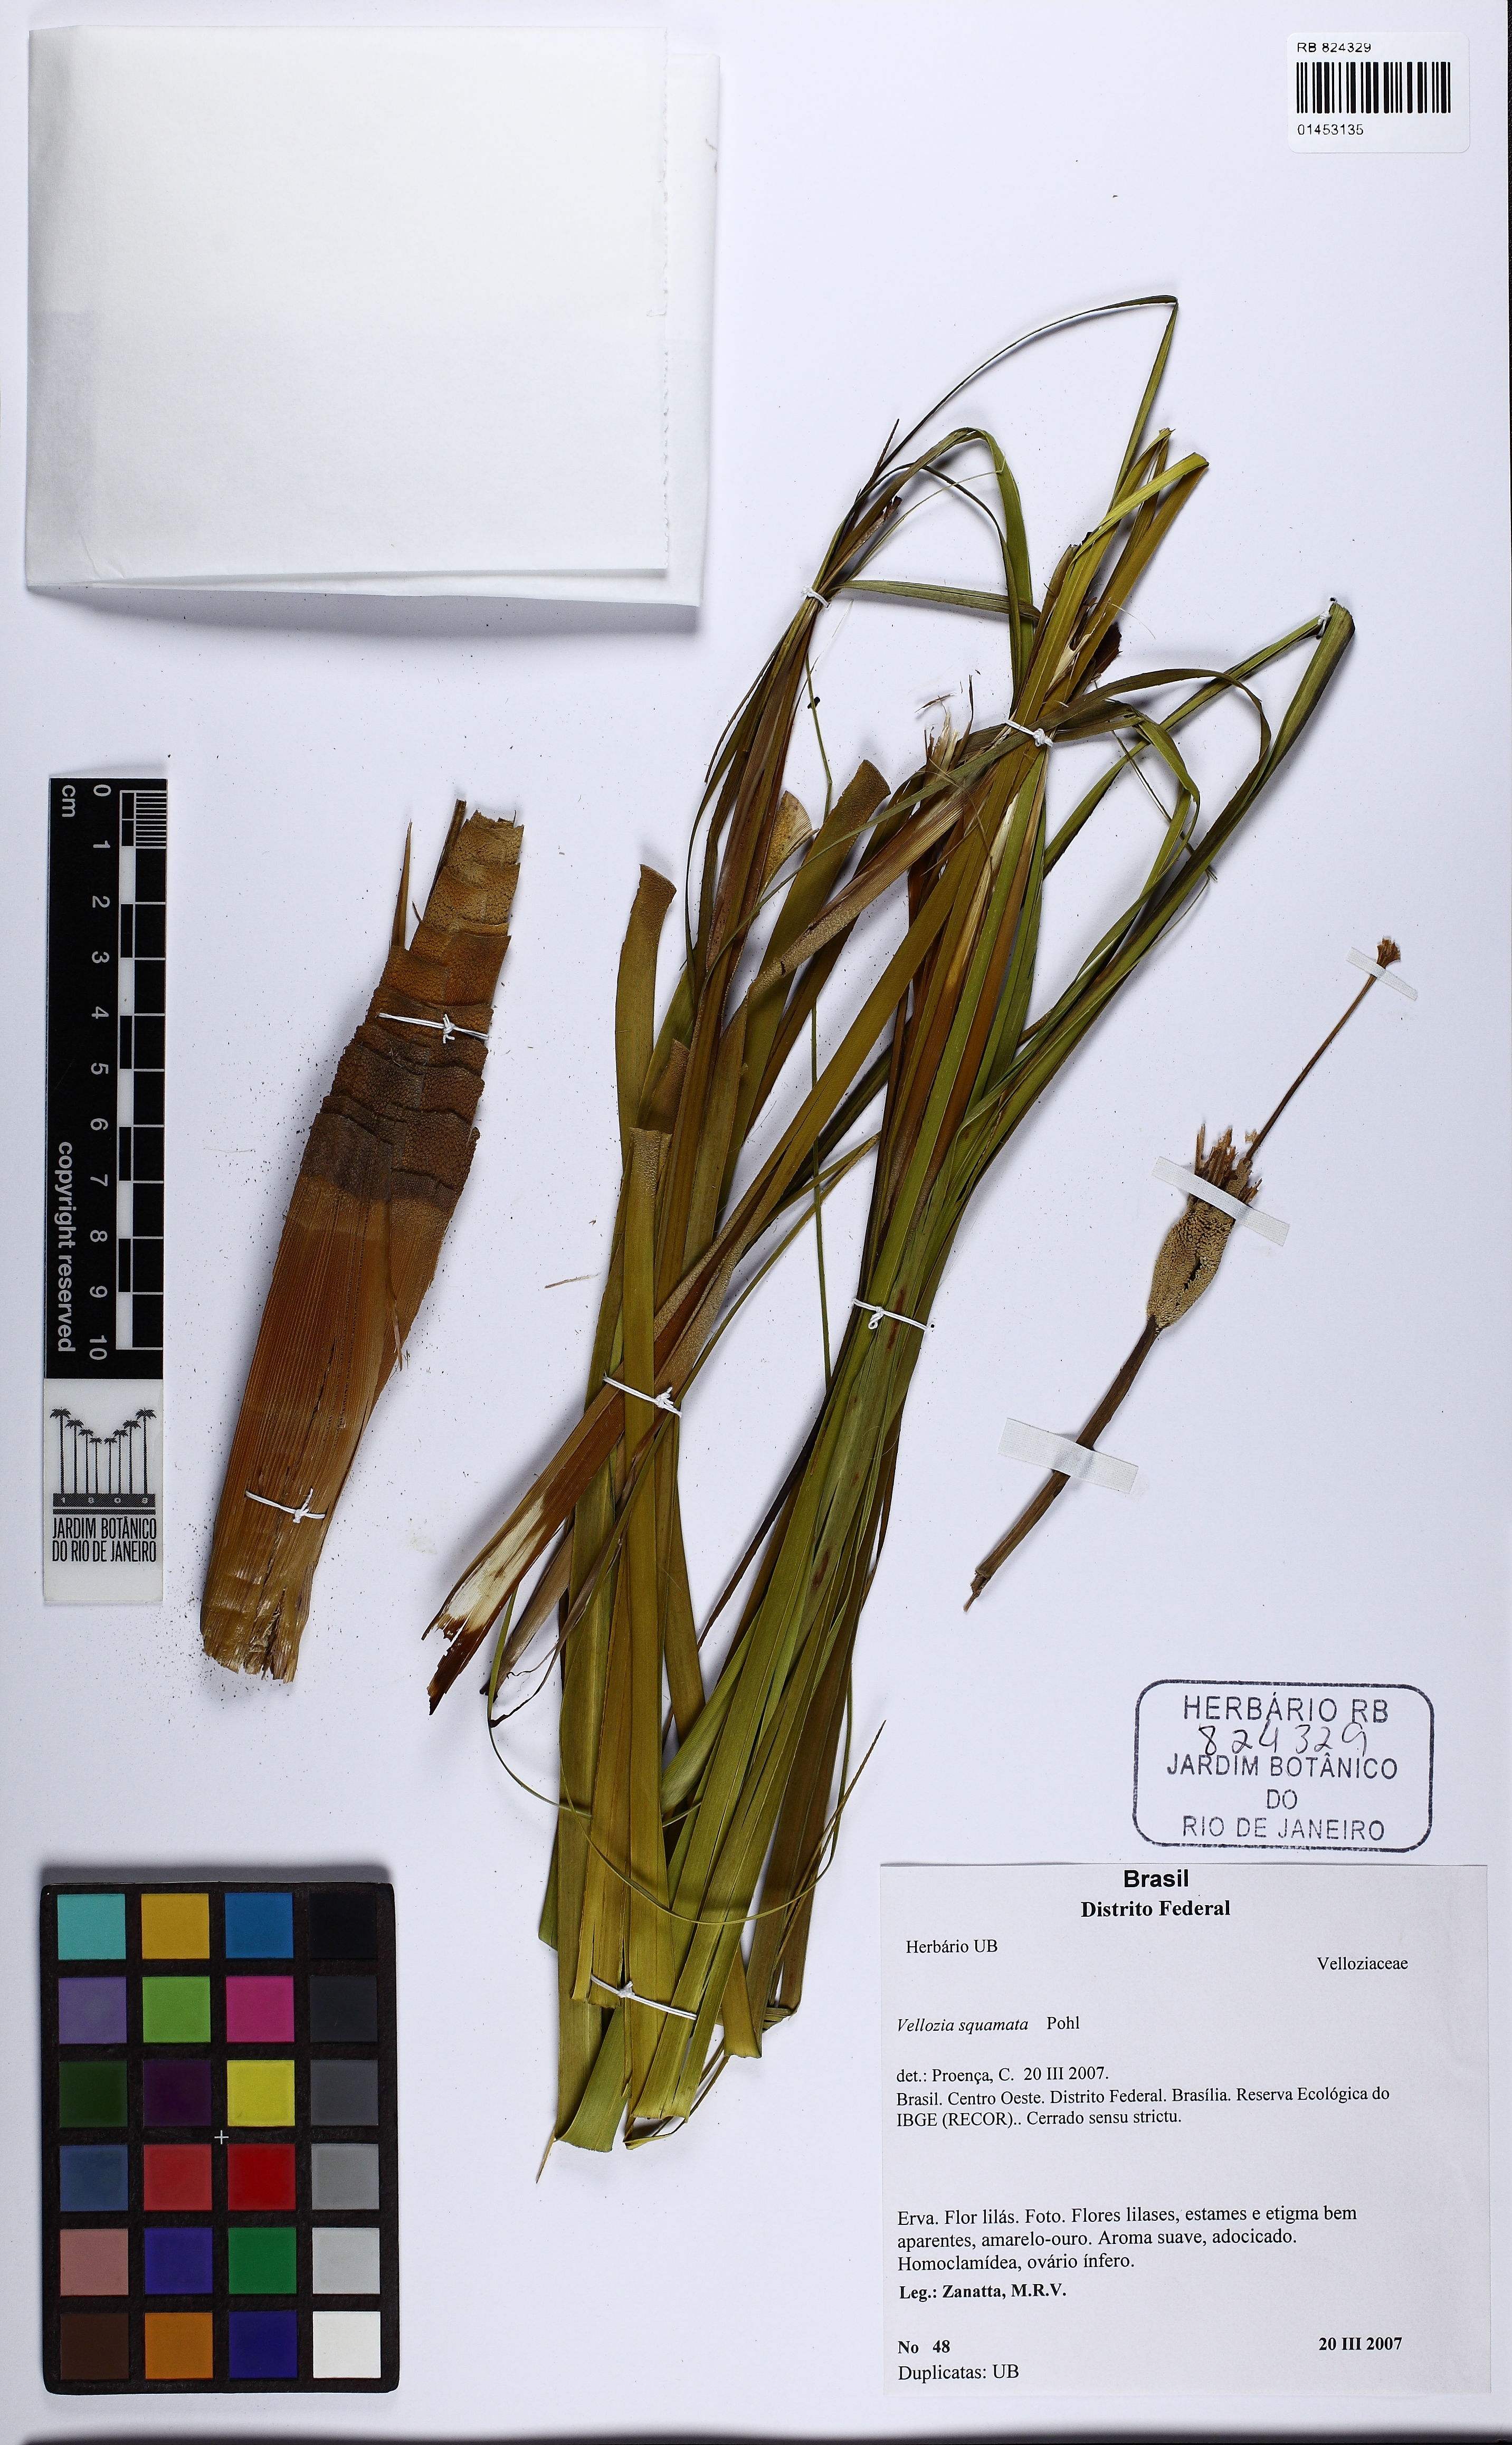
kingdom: Plantae
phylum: Tracheophyta
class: Liliopsida
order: Pandanales
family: Velloziaceae
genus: Vellozia
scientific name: Vellozia squamata
